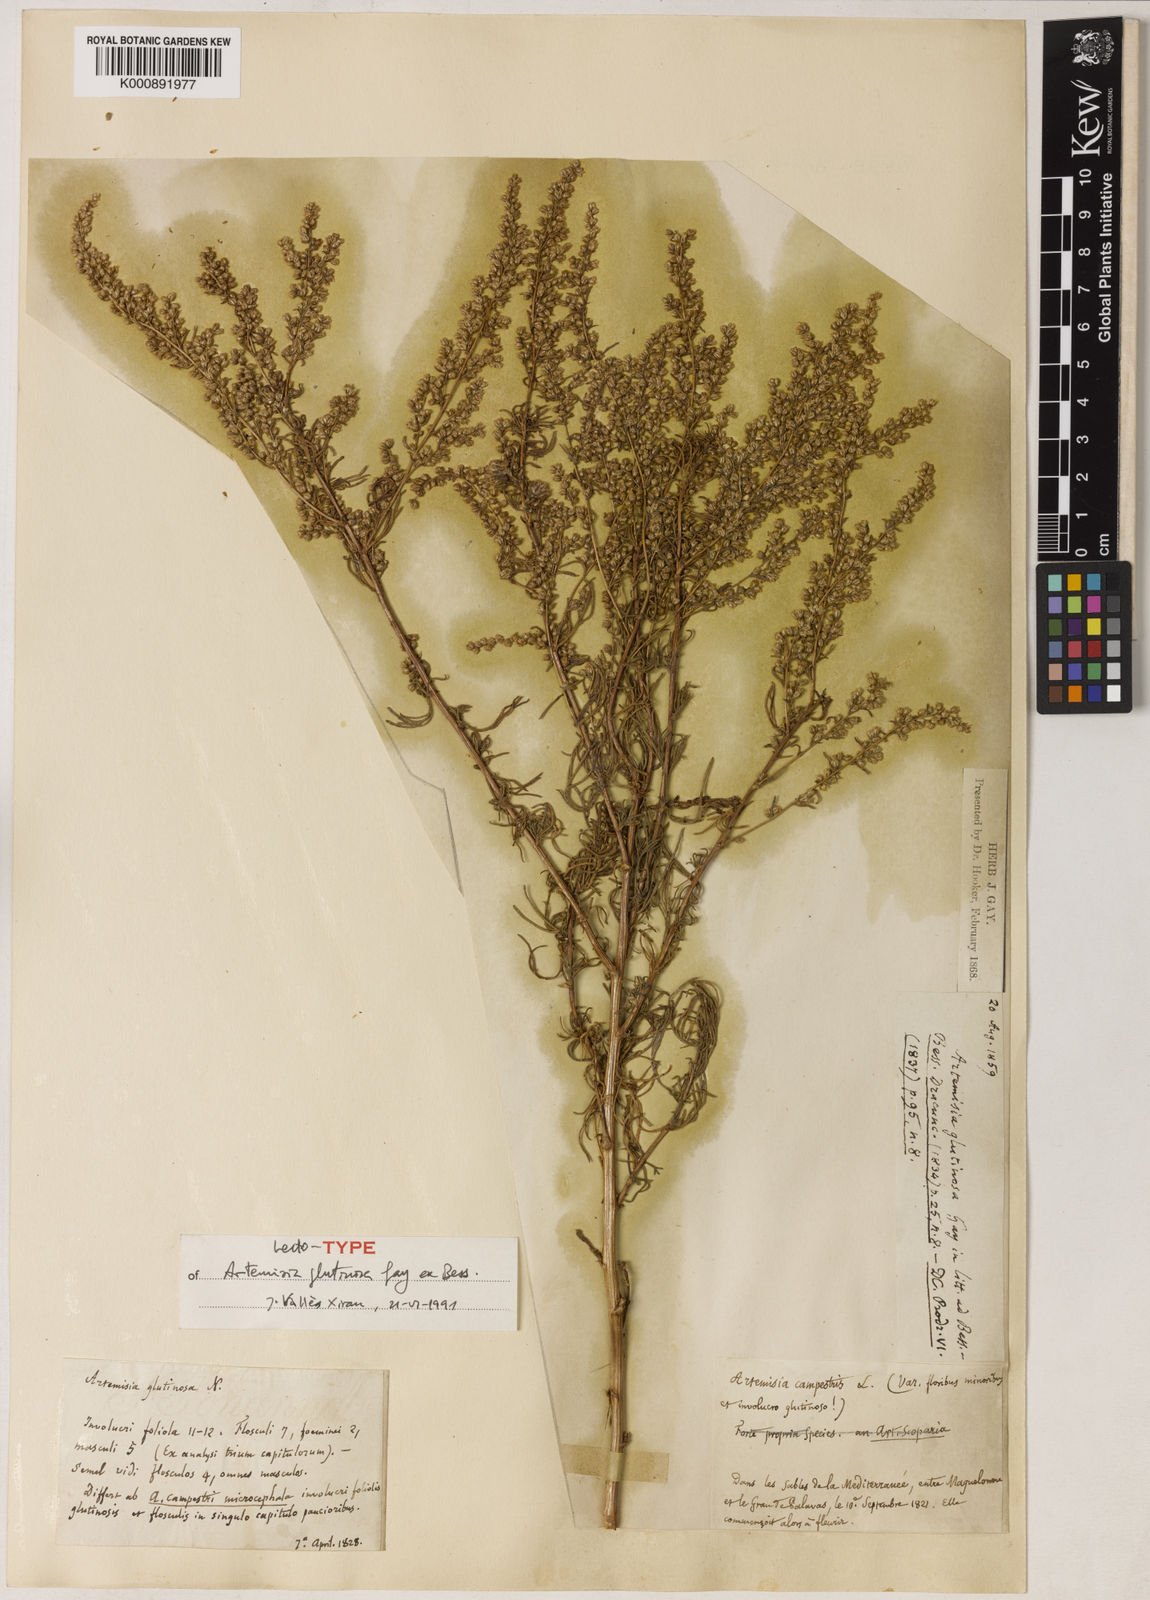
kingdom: Plantae
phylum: Tracheophyta
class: Magnoliopsida
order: Asterales
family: Asteraceae
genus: Artemisia
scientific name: Artemisia campestris
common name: Field wormwood
